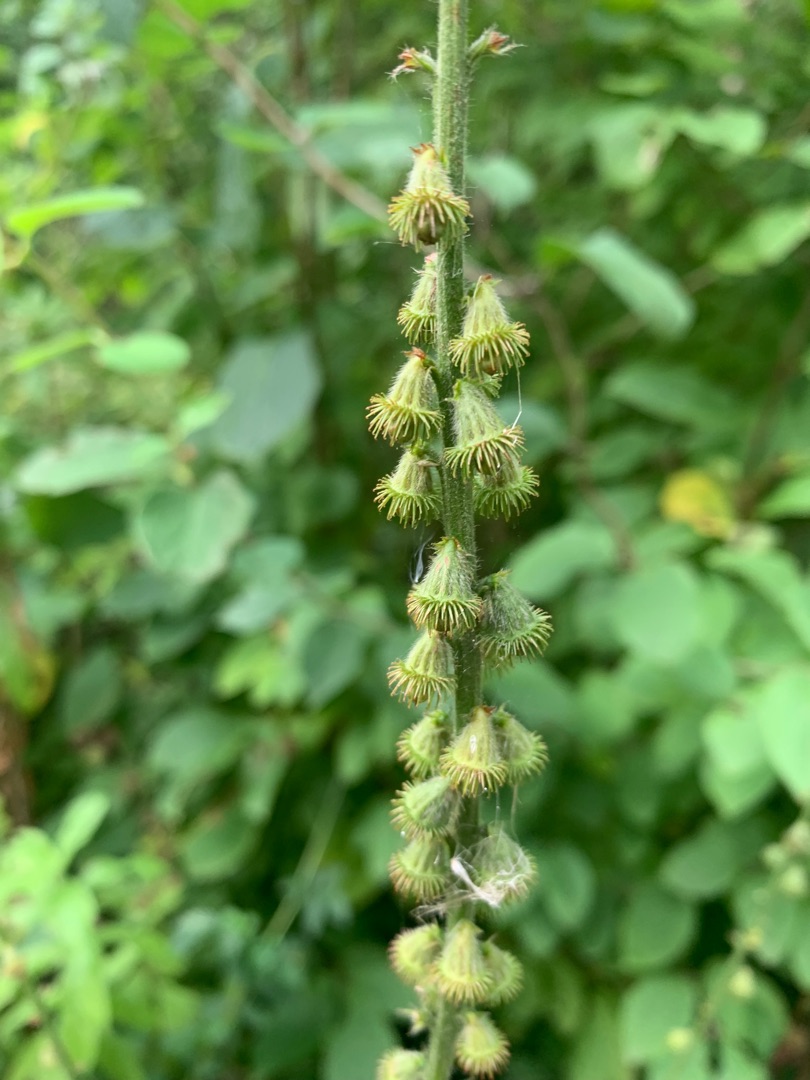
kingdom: Plantae
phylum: Tracheophyta
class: Magnoliopsida
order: Rosales
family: Rosaceae
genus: Agrimonia
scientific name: Agrimonia eupatoria
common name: Almindelig agermåne
